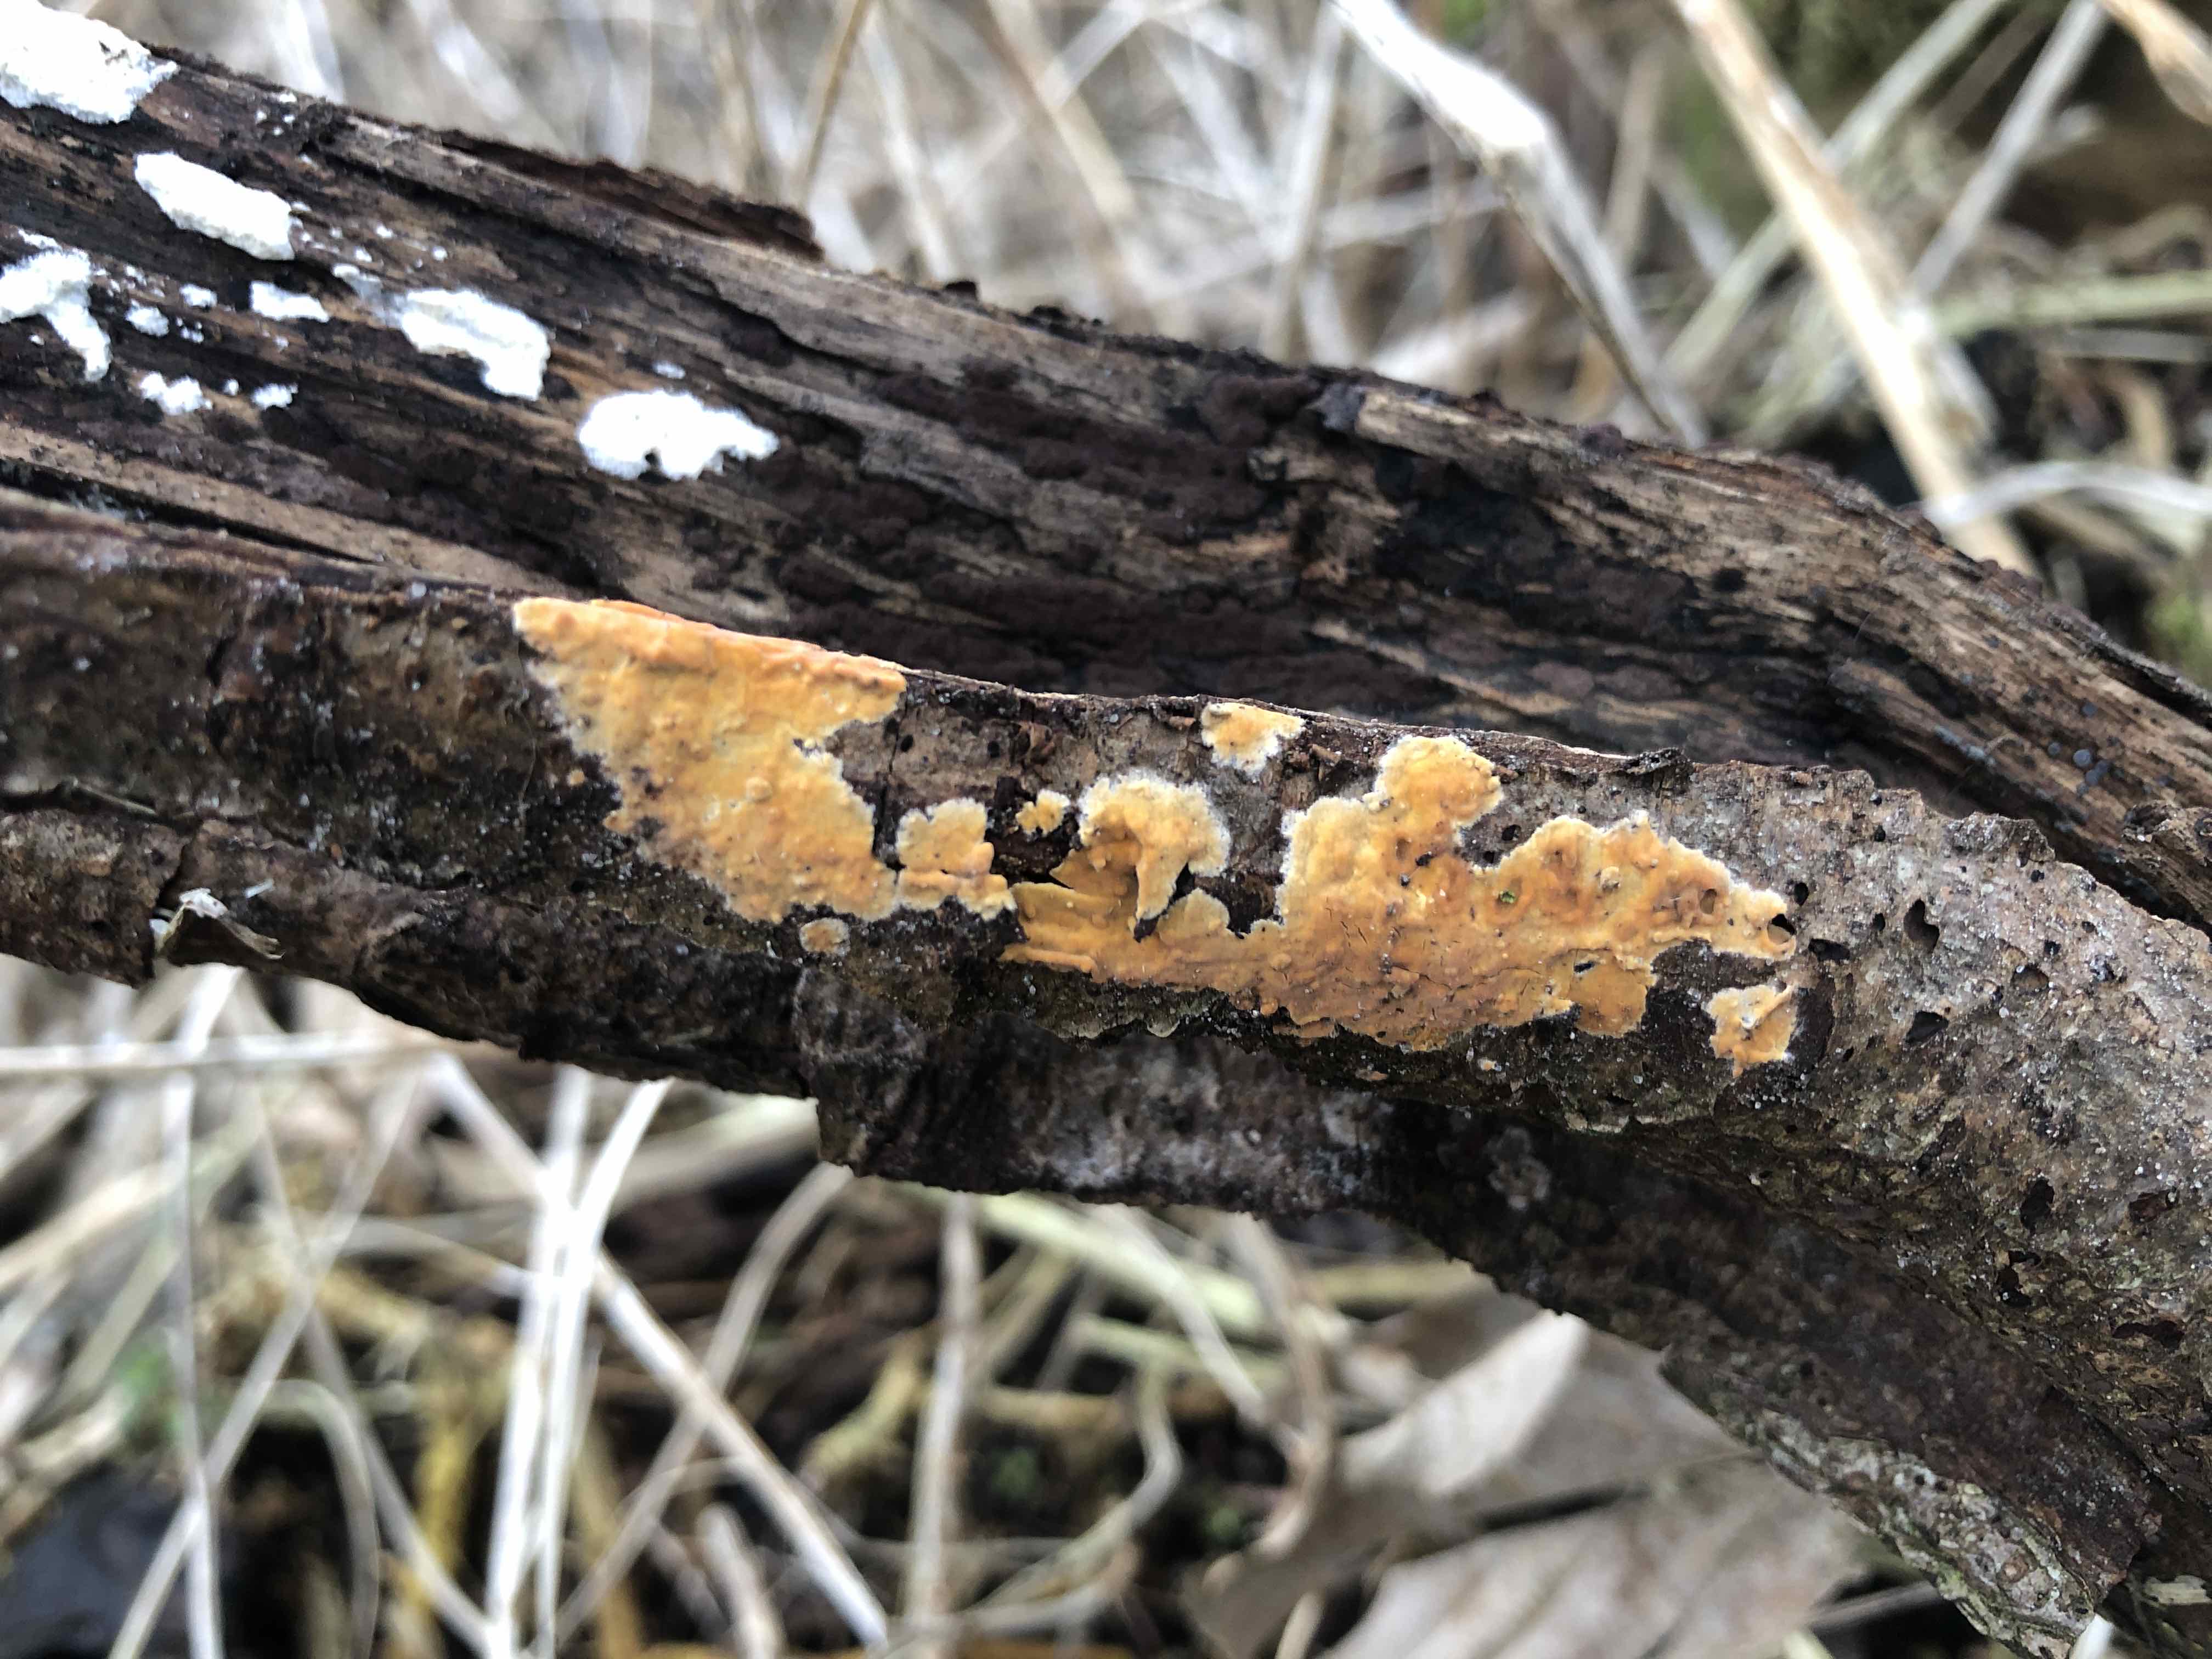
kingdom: Fungi
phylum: Basidiomycota
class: Agaricomycetes
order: Russulales
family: Peniophoraceae
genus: Peniophora
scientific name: Peniophora incarnata
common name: laksefarvet voksskind
